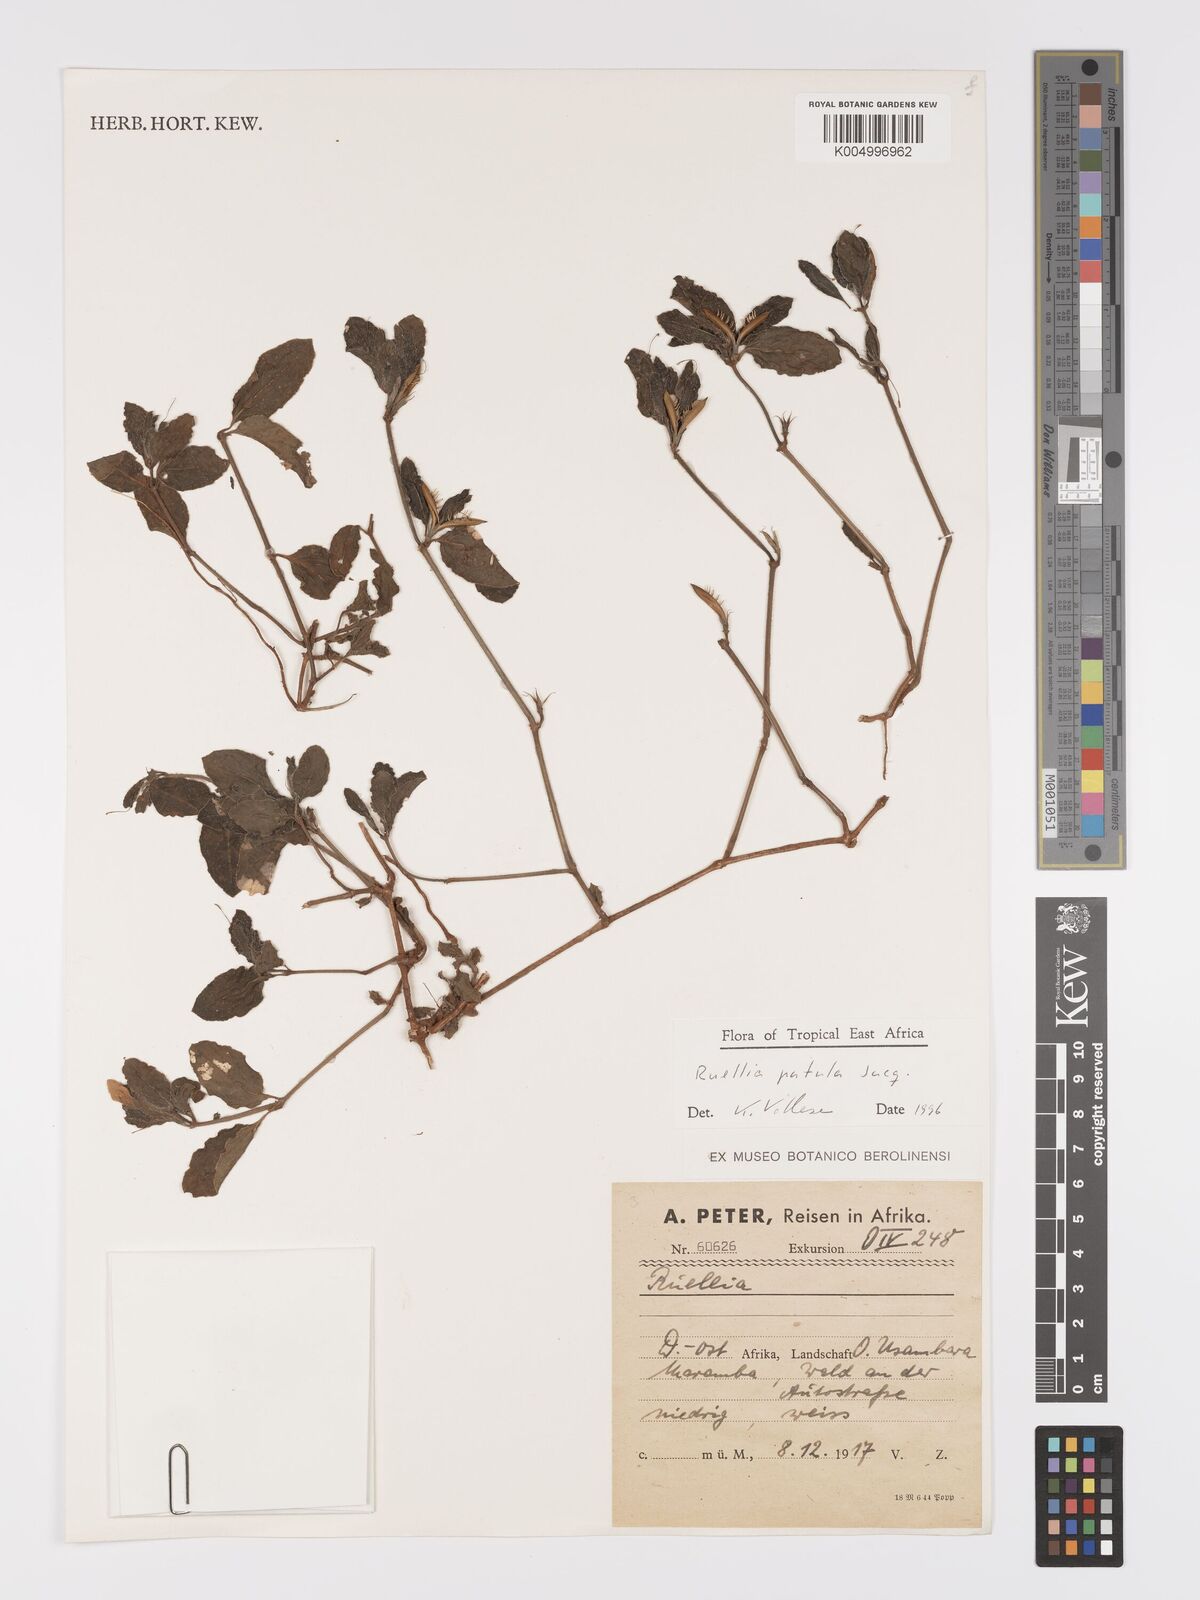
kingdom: Plantae
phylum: Tracheophyta
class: Magnoliopsida
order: Lamiales
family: Acanthaceae
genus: Ruellia
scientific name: Ruellia patula
